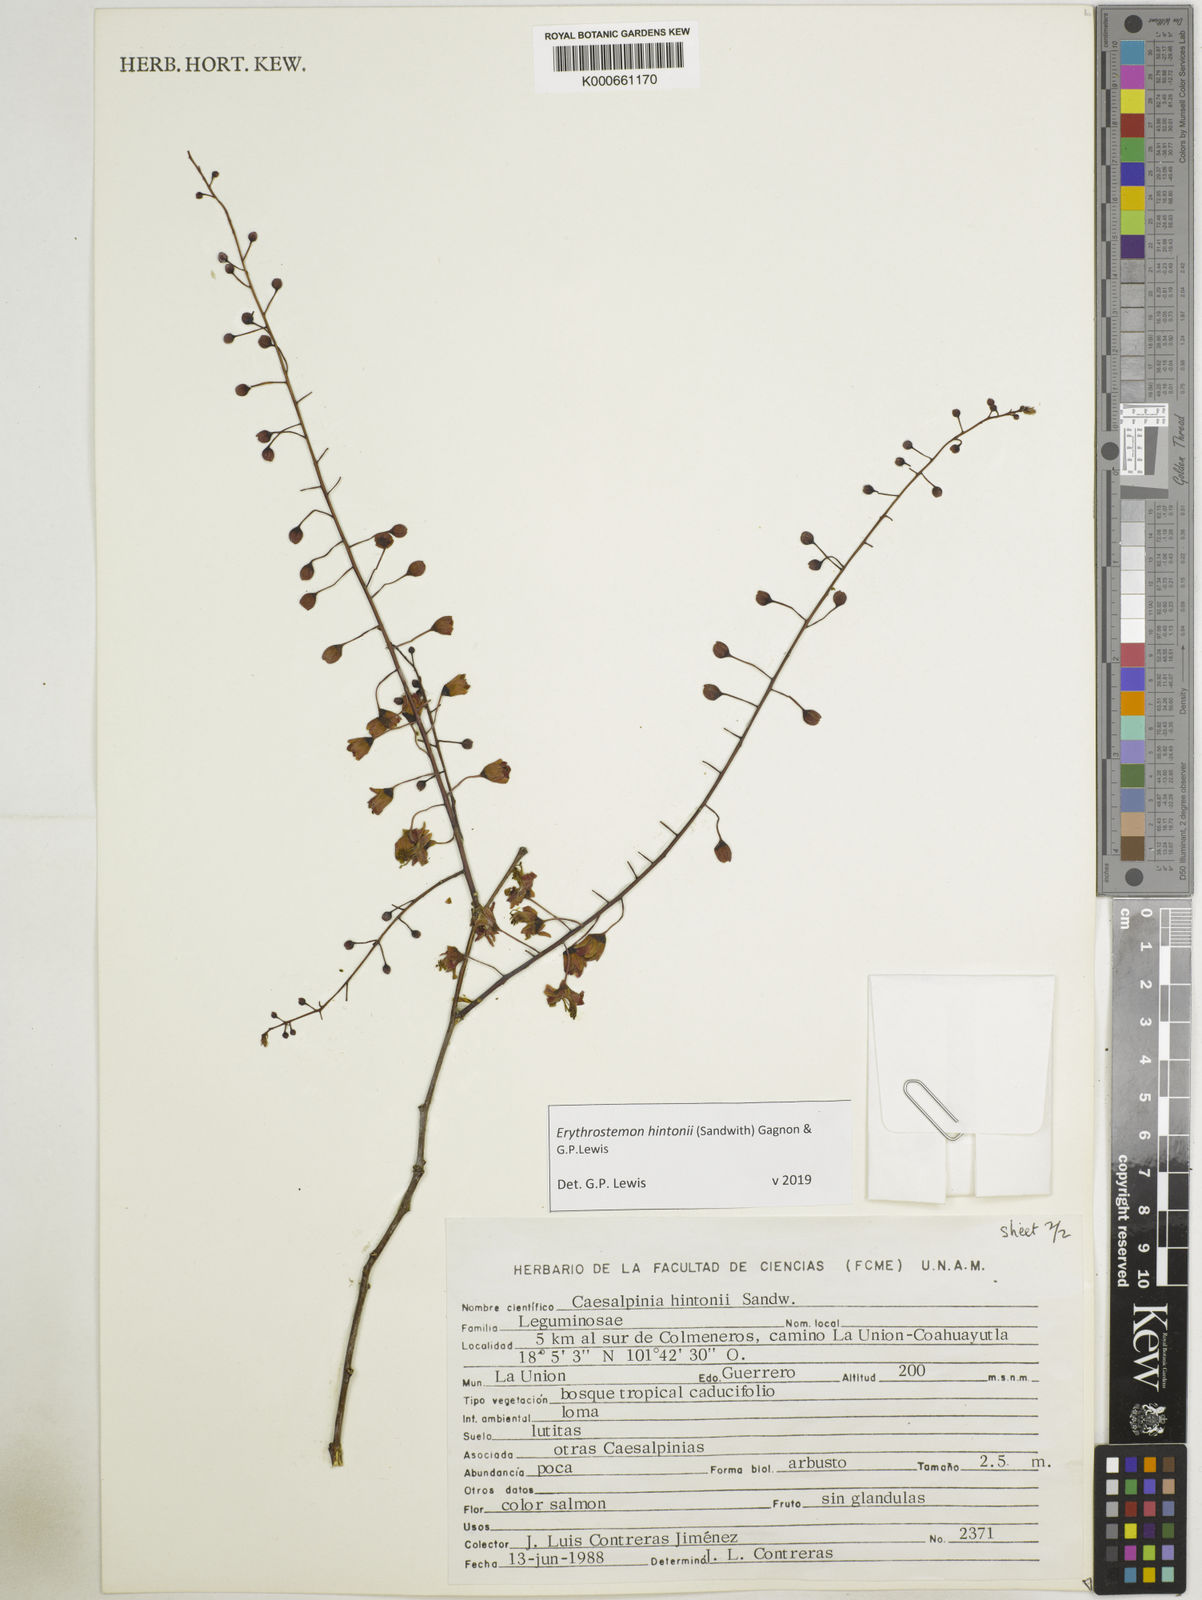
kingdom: Plantae
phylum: Tracheophyta
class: Magnoliopsida
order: Fabales
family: Fabaceae
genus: Erythrostemon
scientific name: Erythrostemon hintonii
